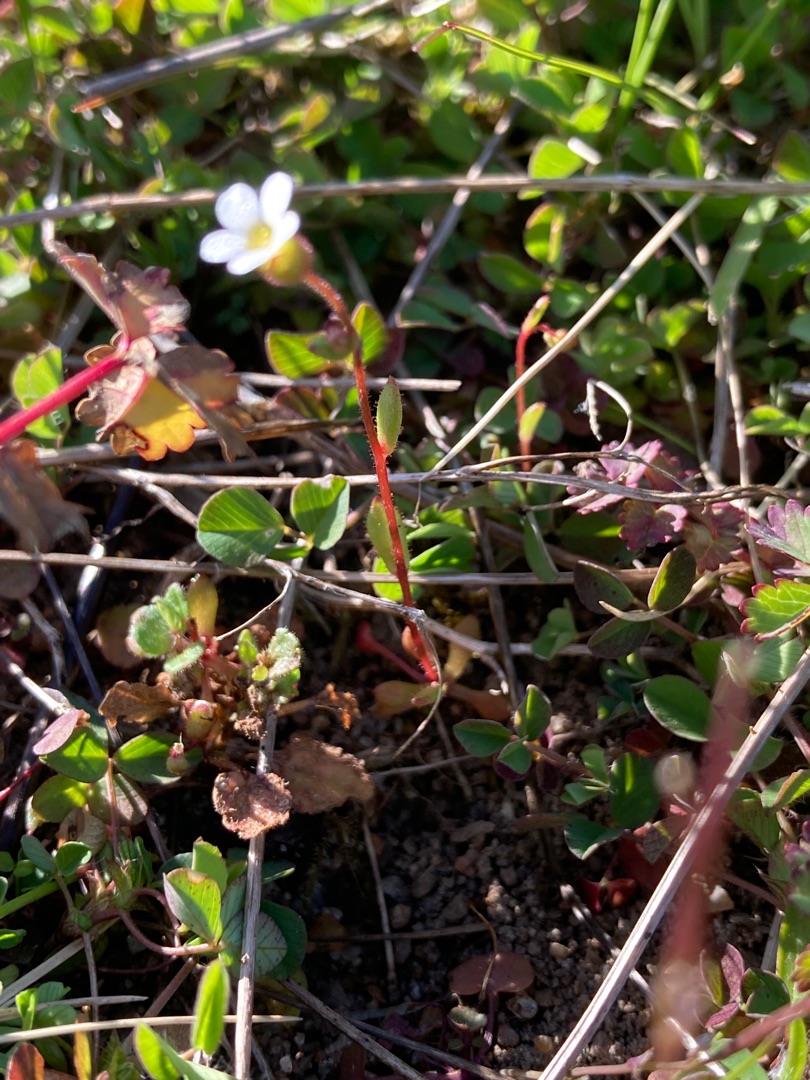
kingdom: Plantae
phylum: Tracheophyta
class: Magnoliopsida
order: Saxifragales
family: Saxifragaceae
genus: Saxifraga
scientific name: Saxifraga tridactylites
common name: Trekløft-stenbræk
